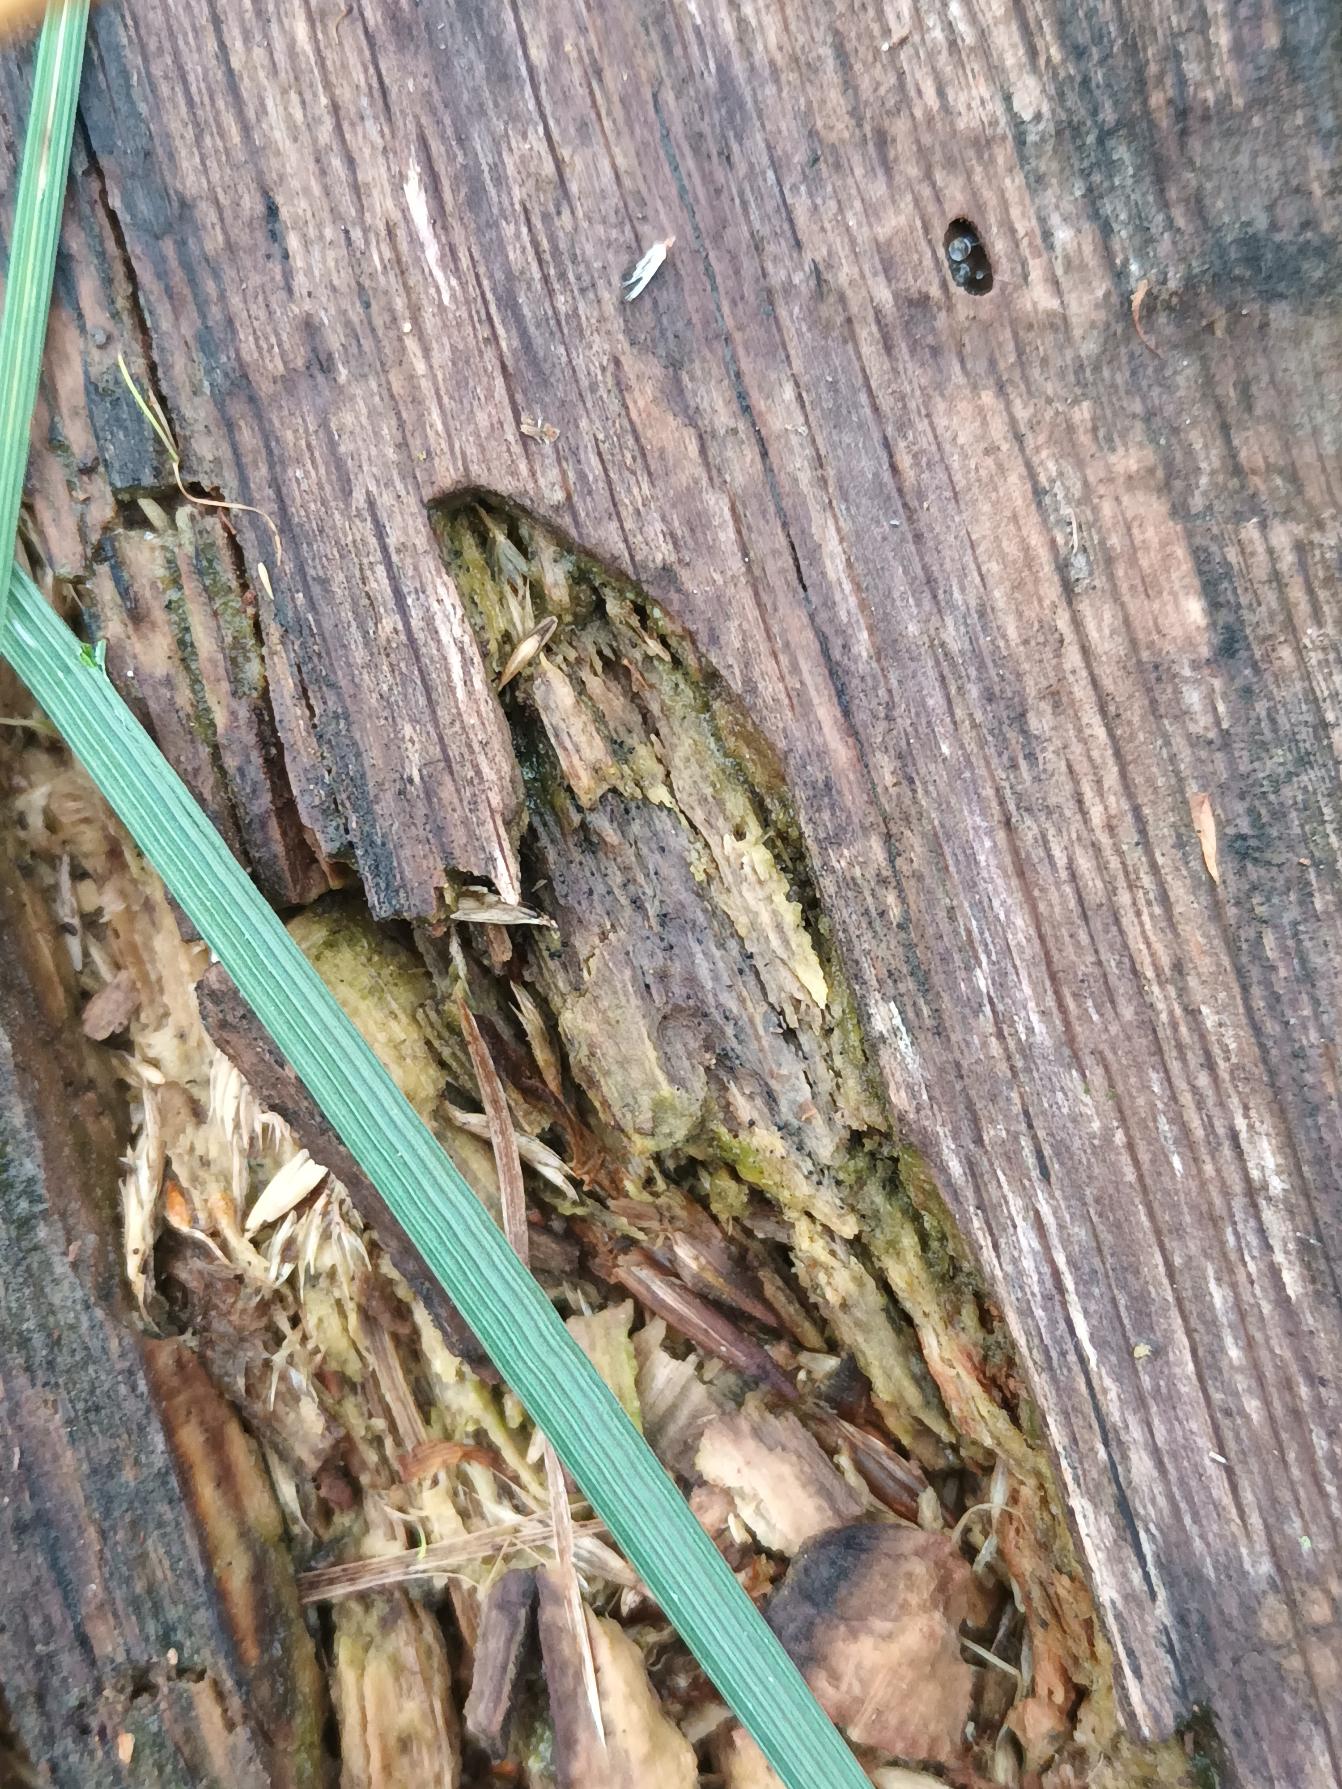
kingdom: Plantae
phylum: Tracheophyta
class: Liliopsida
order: Poales
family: Poaceae
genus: Deschampsia
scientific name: Deschampsia cespitosa
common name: Mose-bunke
